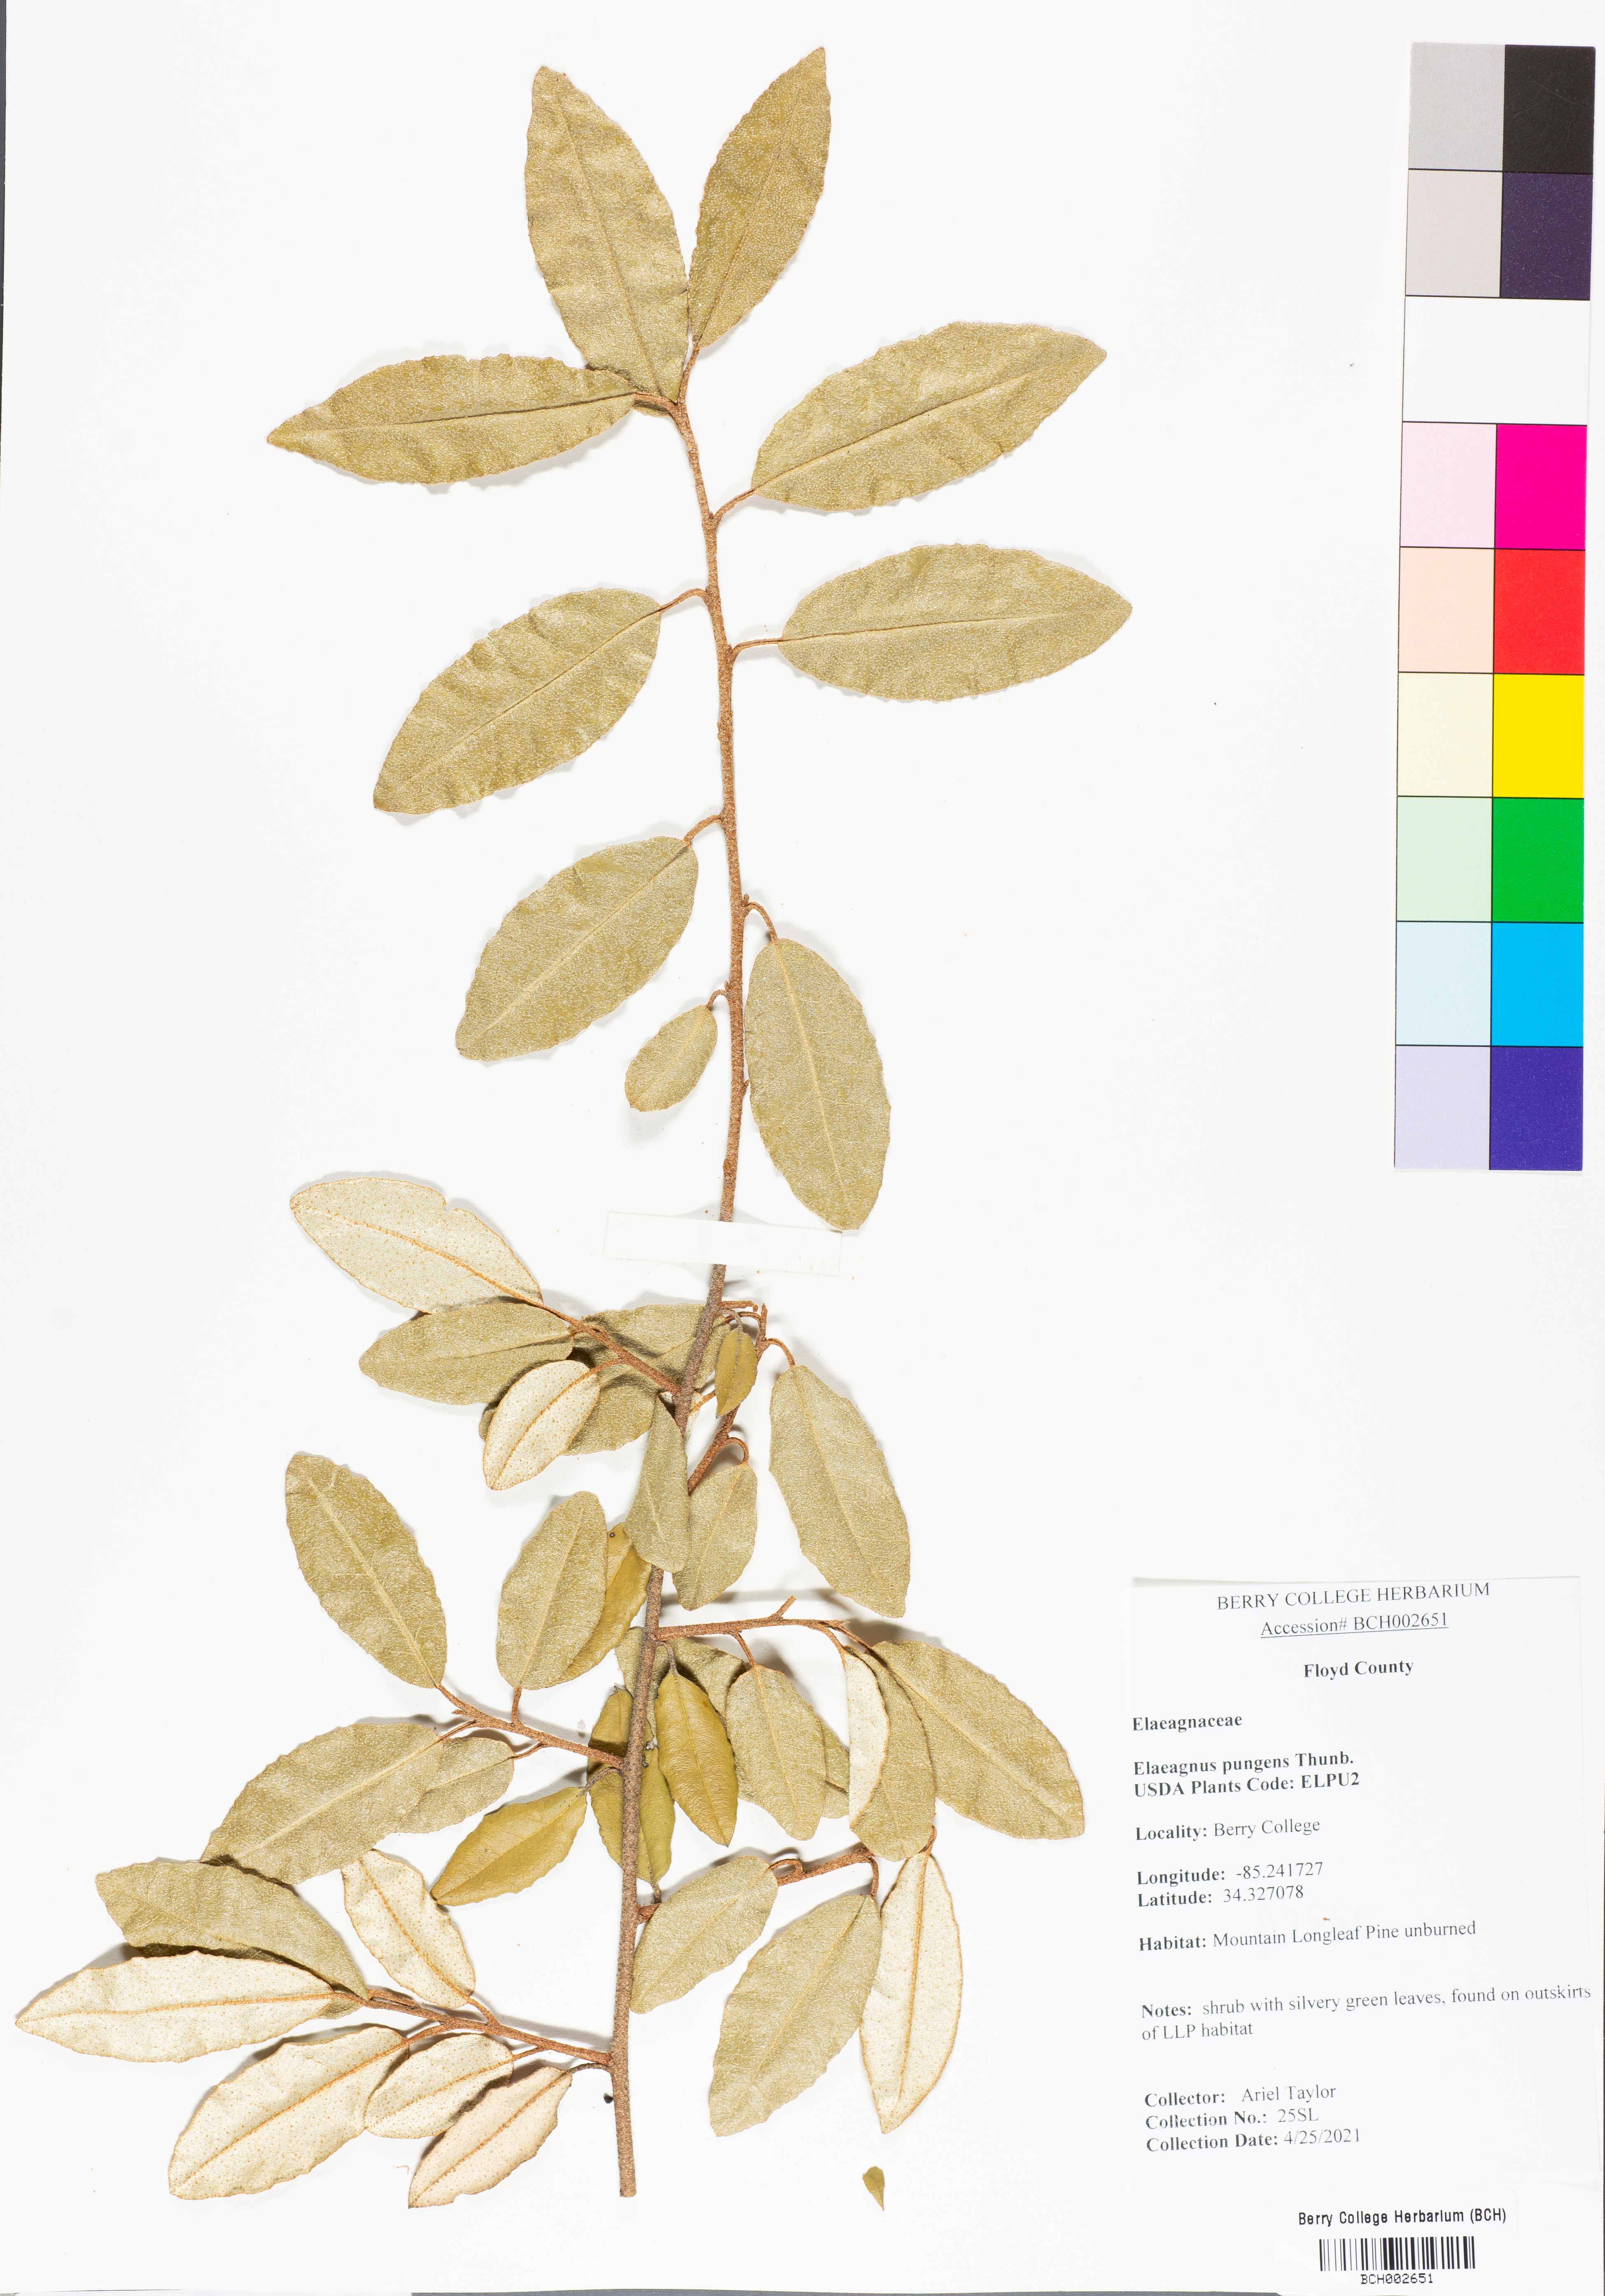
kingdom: Plantae
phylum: Tracheophyta
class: Magnoliopsida
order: Rosales
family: Elaeagnaceae
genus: Elaeagnus
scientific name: Elaeagnus pungens
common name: Spiny oleaster
